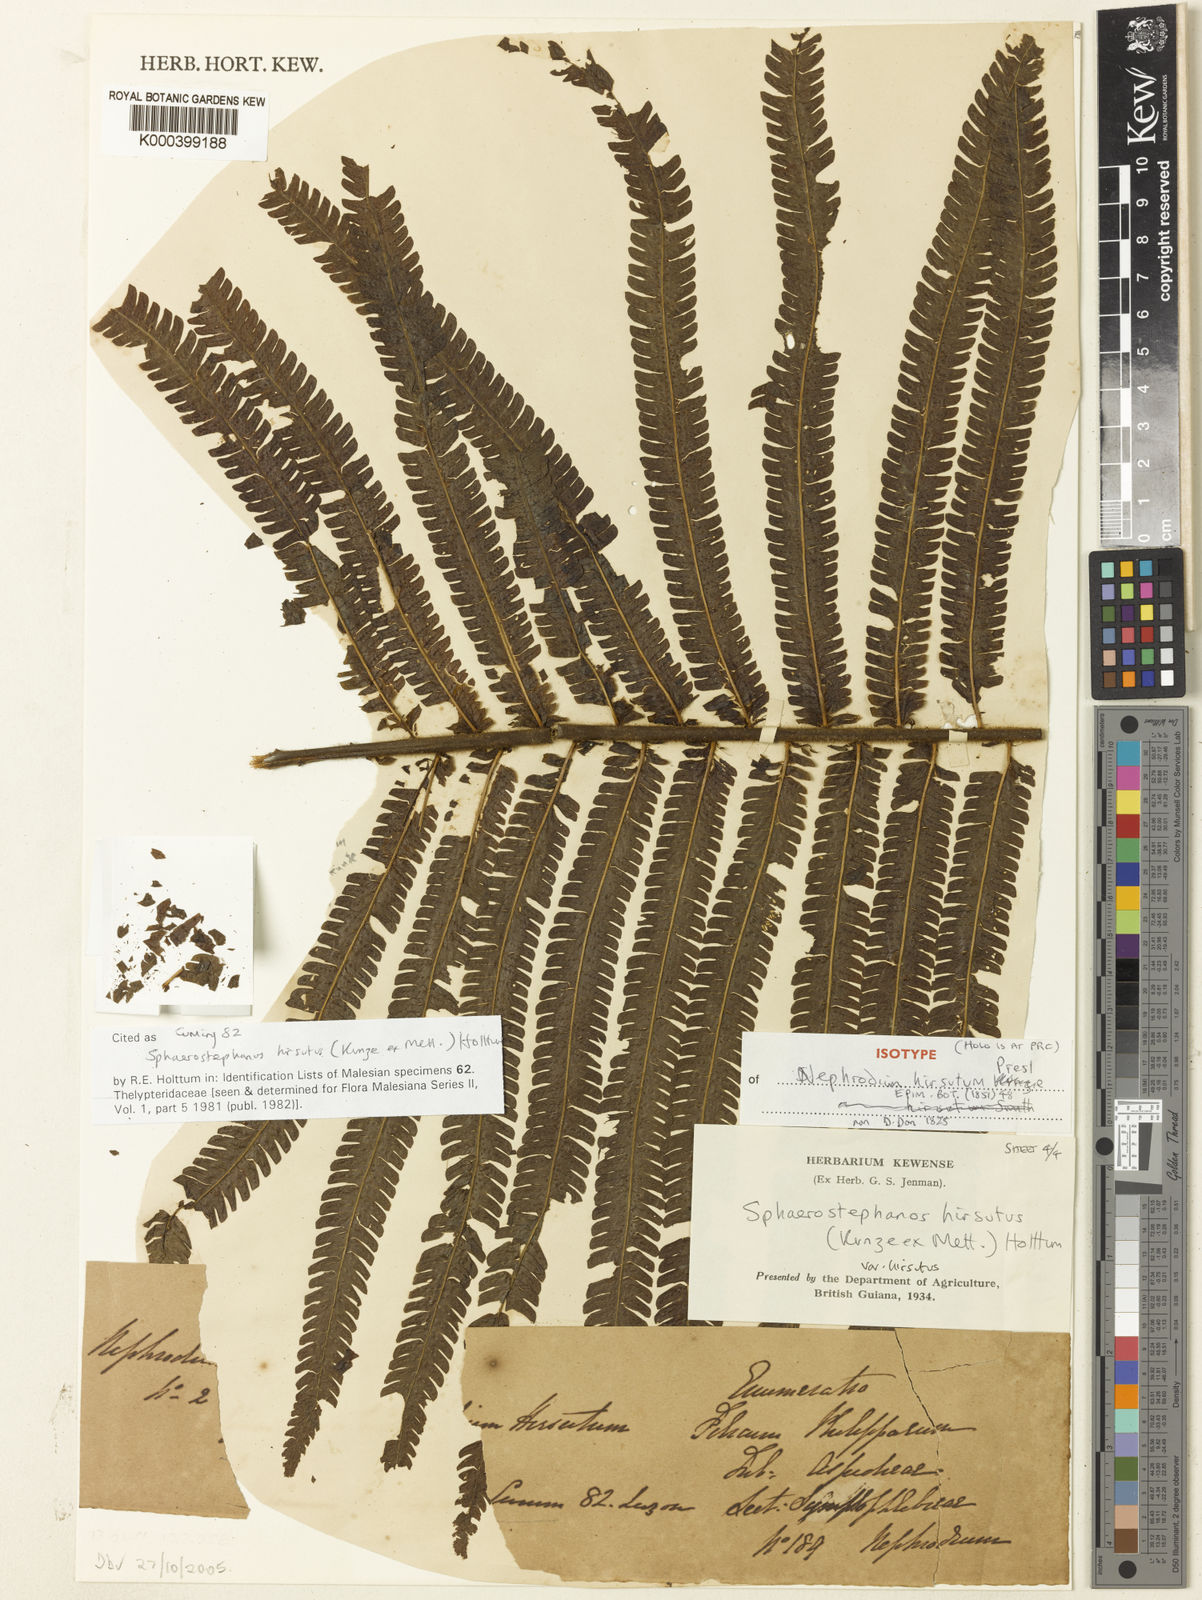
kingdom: Plantae
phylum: Tracheophyta
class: Polypodiopsida
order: Polypodiales
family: Thelypteridaceae
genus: Sphaerostephanos
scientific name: Sphaerostephanos hirsutus
